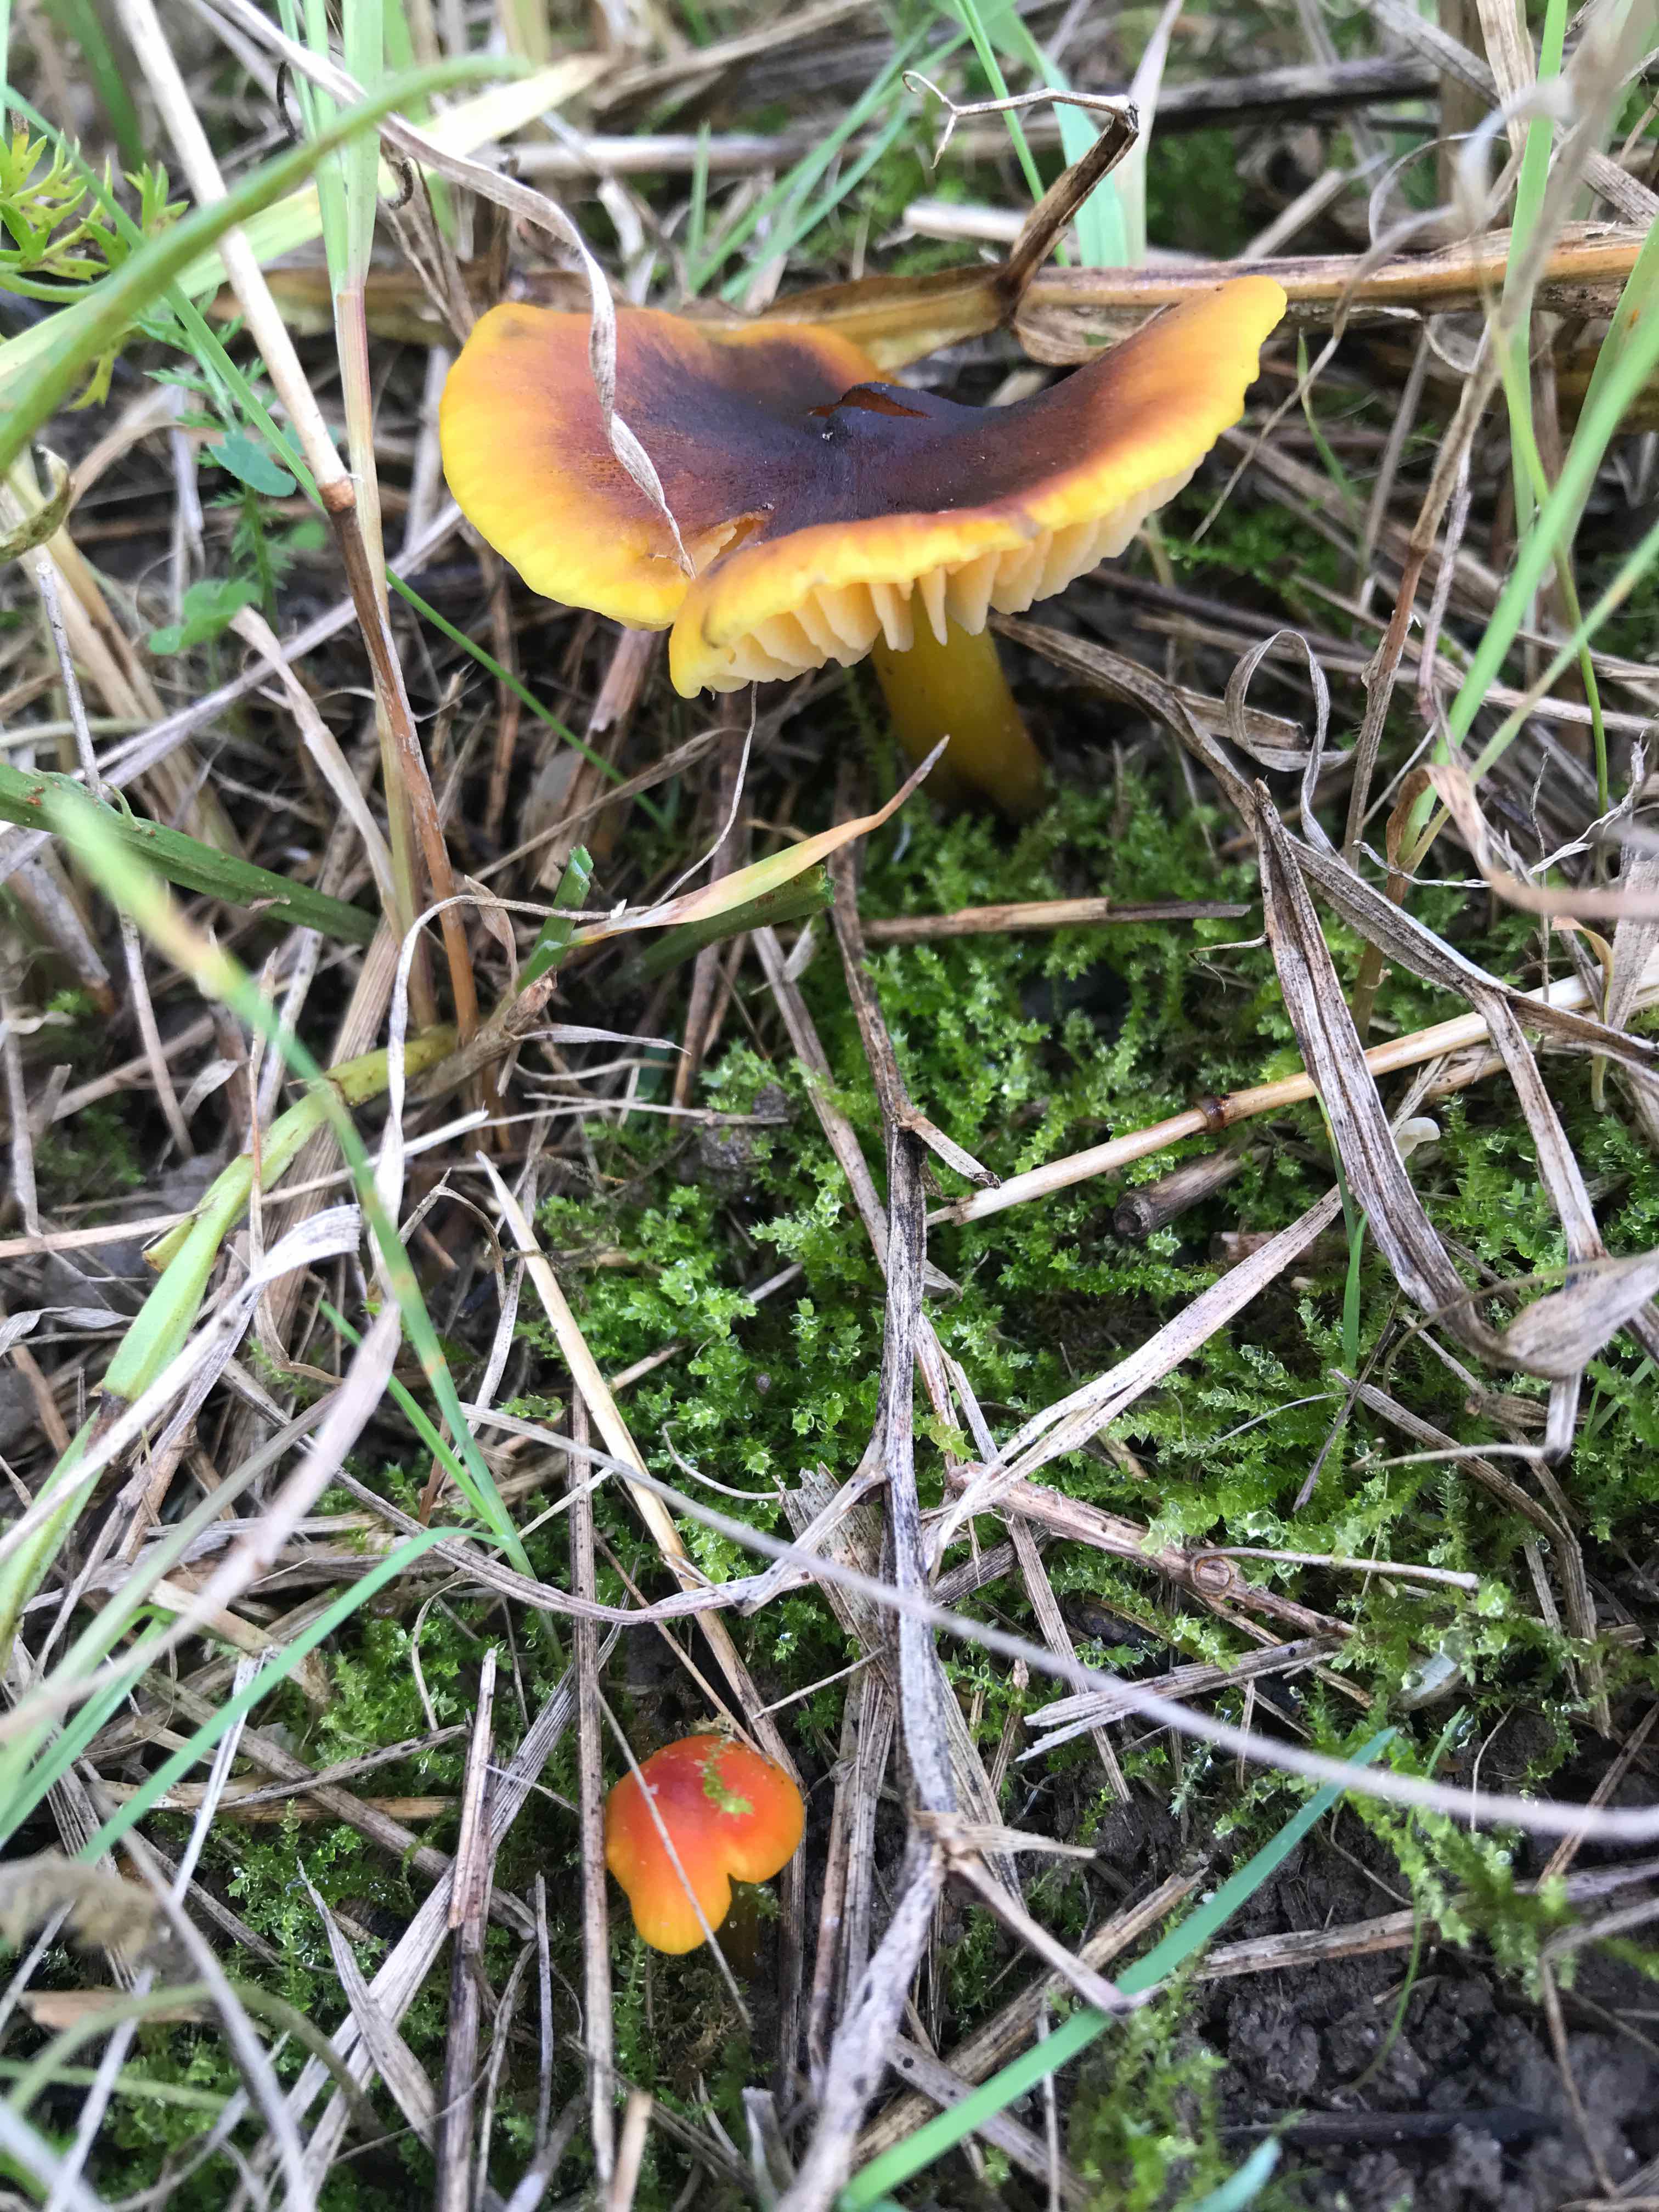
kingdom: Fungi
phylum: Basidiomycota
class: Agaricomycetes
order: Agaricales
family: Hygrophoraceae
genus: Hygrocybe
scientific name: Hygrocybe conica
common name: kegle-vokshat
